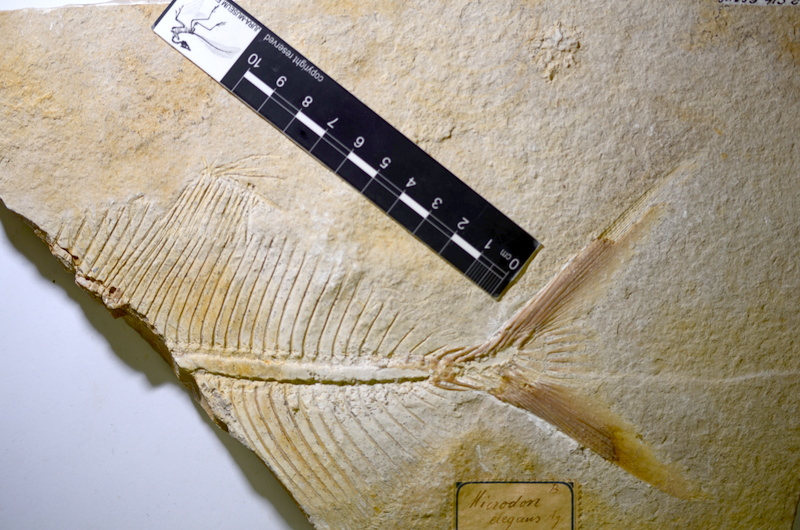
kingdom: Animalia
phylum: Chordata
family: Pycnodontidae
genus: Proscinetes
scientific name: Proscinetes bernardi
